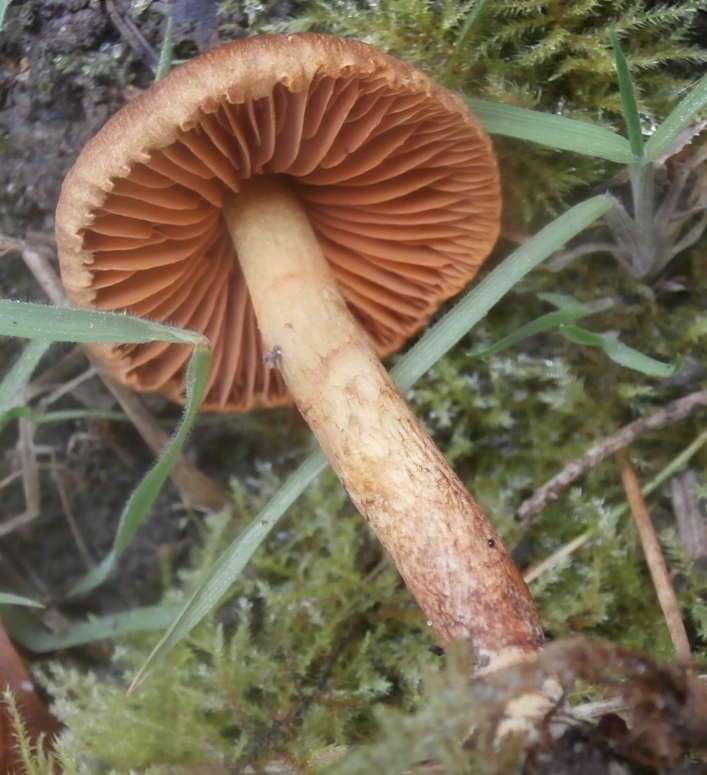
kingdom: Fungi
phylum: Basidiomycota
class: Agaricomycetes
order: Agaricales
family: Cortinariaceae
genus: Cortinarius
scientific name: Cortinarius
